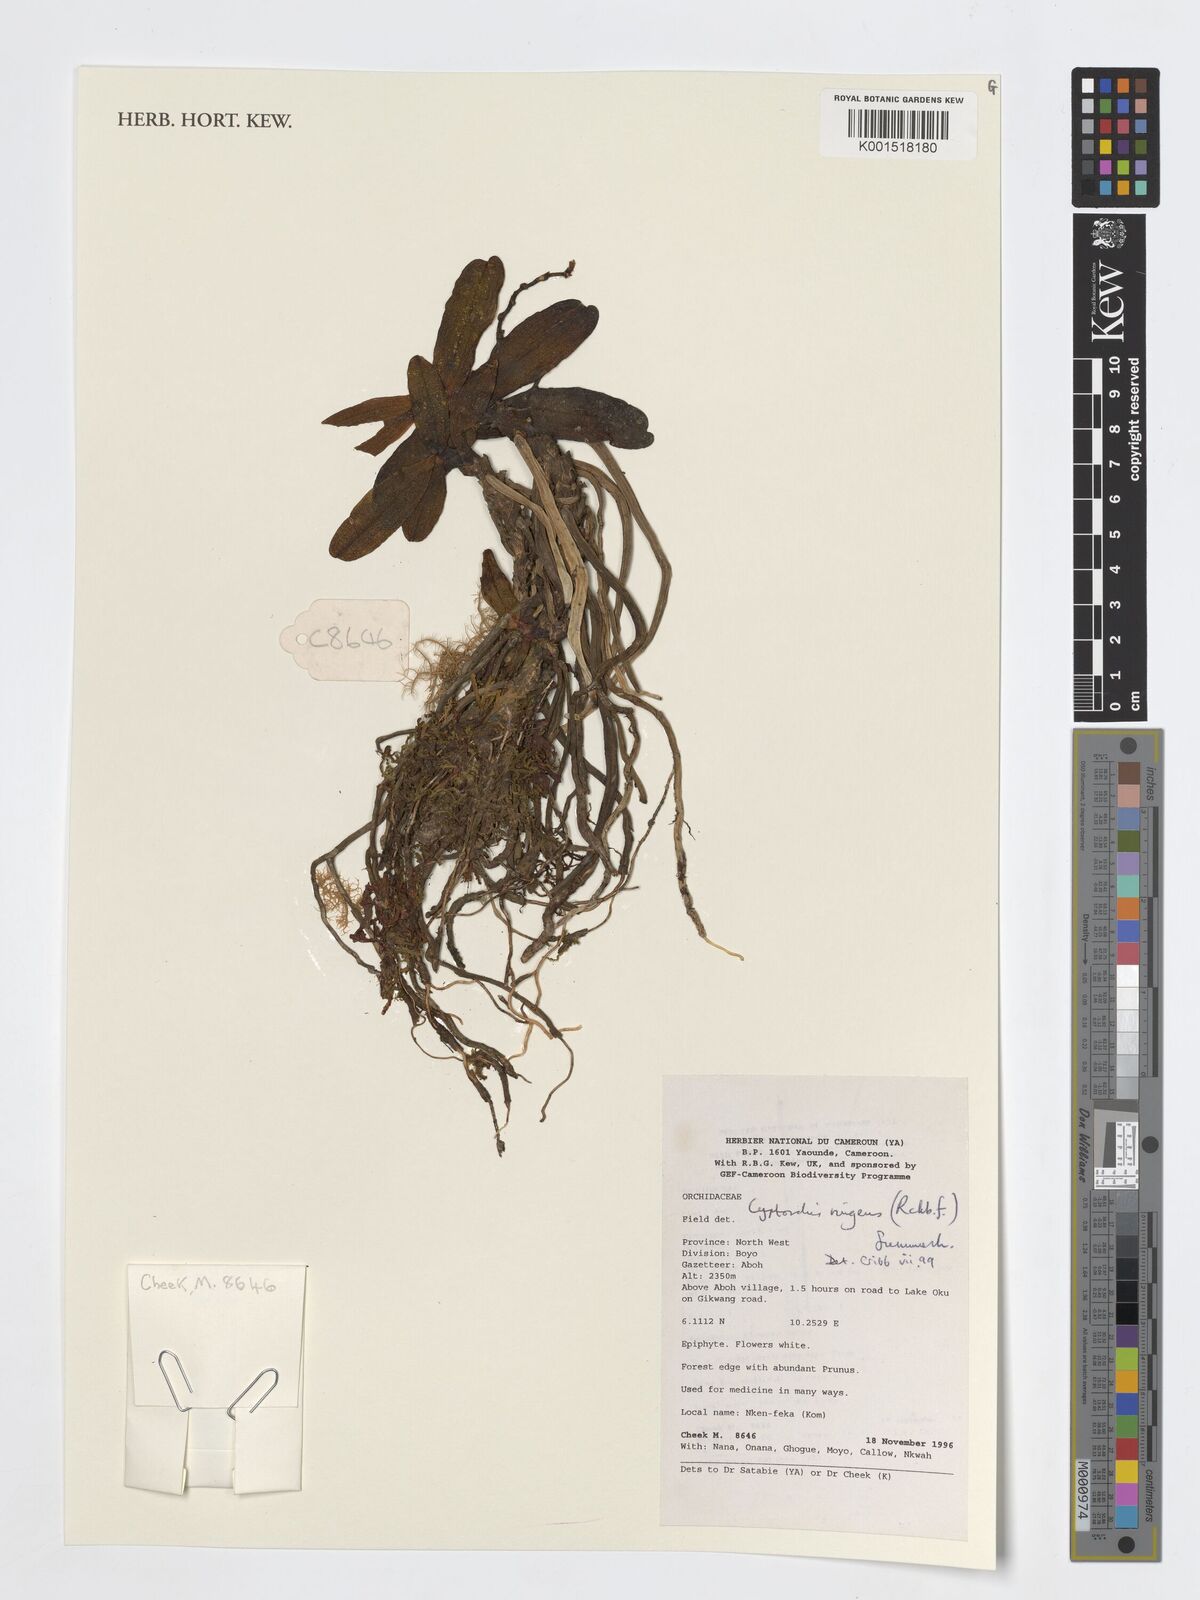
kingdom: Plantae
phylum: Tracheophyta
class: Liliopsida
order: Asparagales
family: Orchidaceae
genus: Cyrtorchis
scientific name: Cyrtorchis ringens
